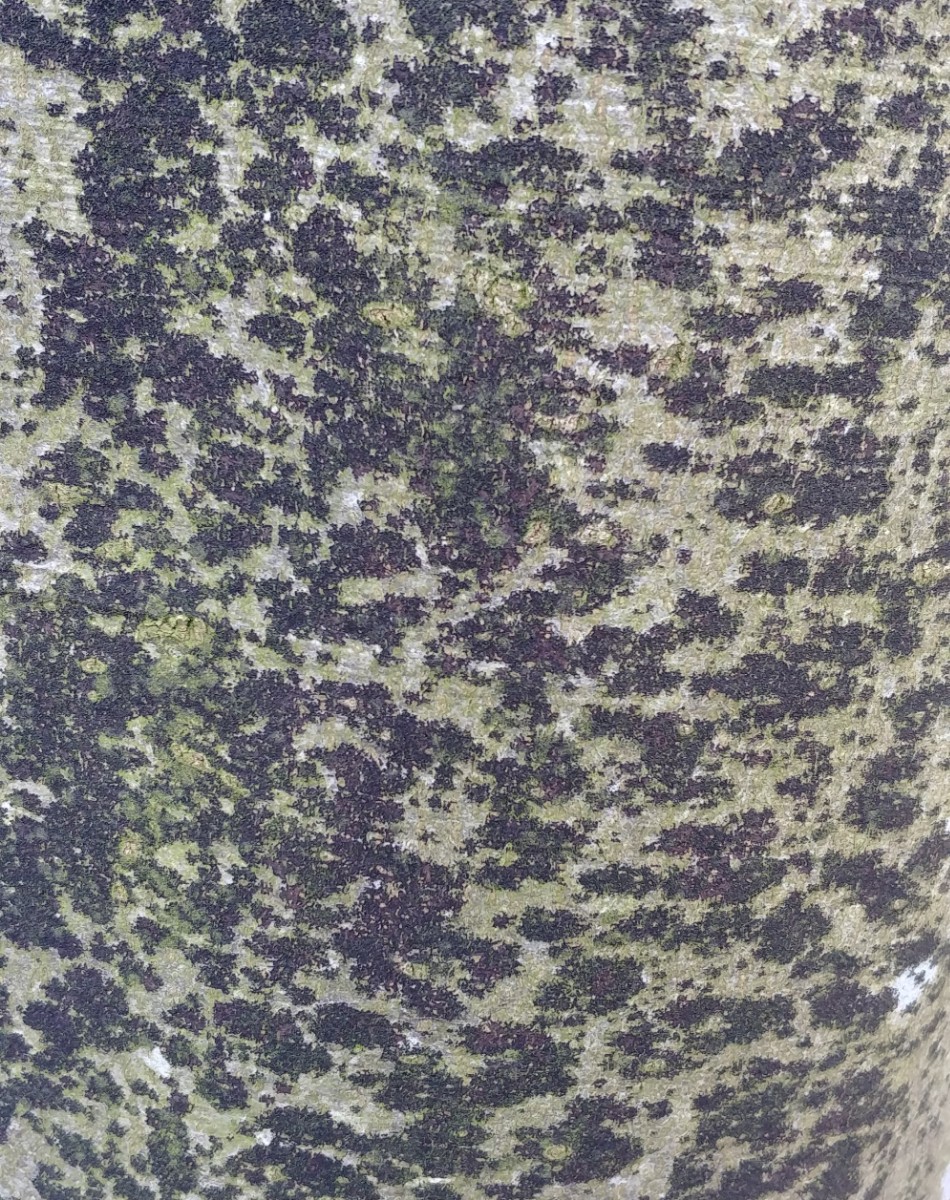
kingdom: Fungi
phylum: Ascomycota
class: Leotiomycetes
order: Rhytismatales
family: Ascodichaenaceae
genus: Ascodichaena
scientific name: Ascodichaena rugosa
